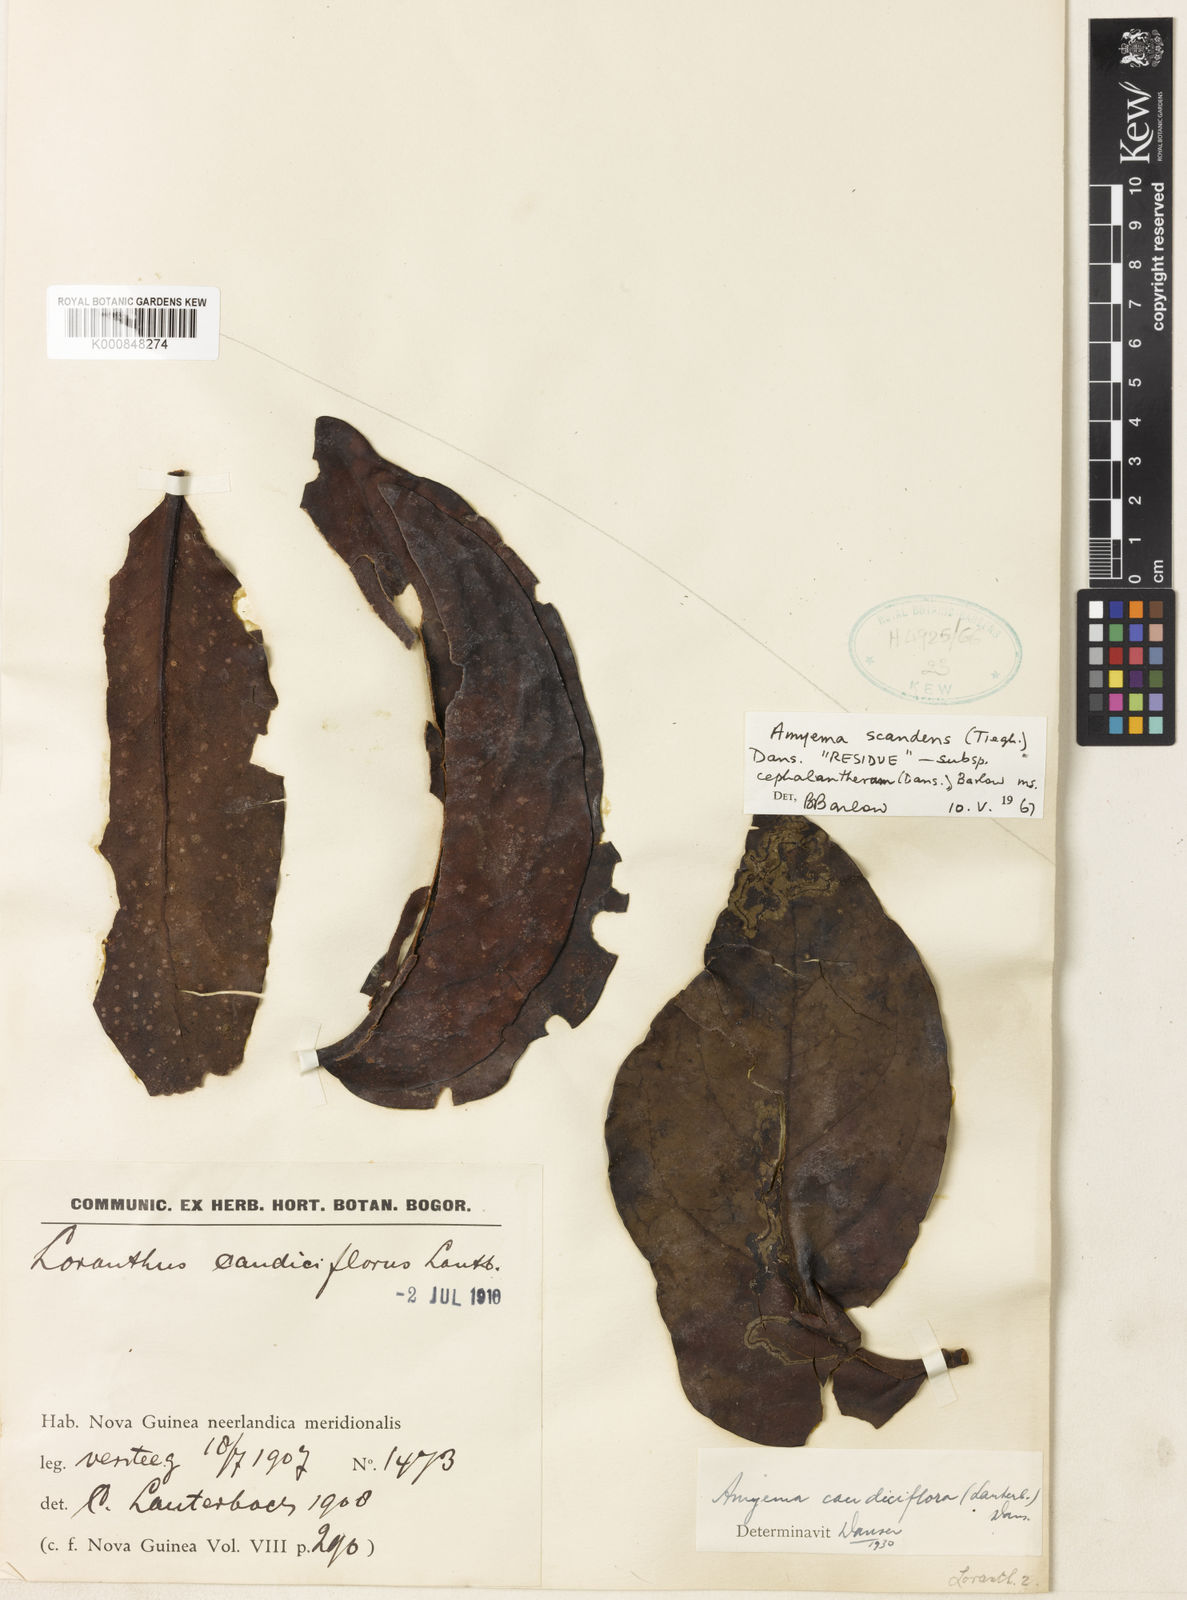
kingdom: Plantae
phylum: Tracheophyta
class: Magnoliopsida
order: Santalales
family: Loranthaceae
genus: Amyema
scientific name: Amyema scandens
